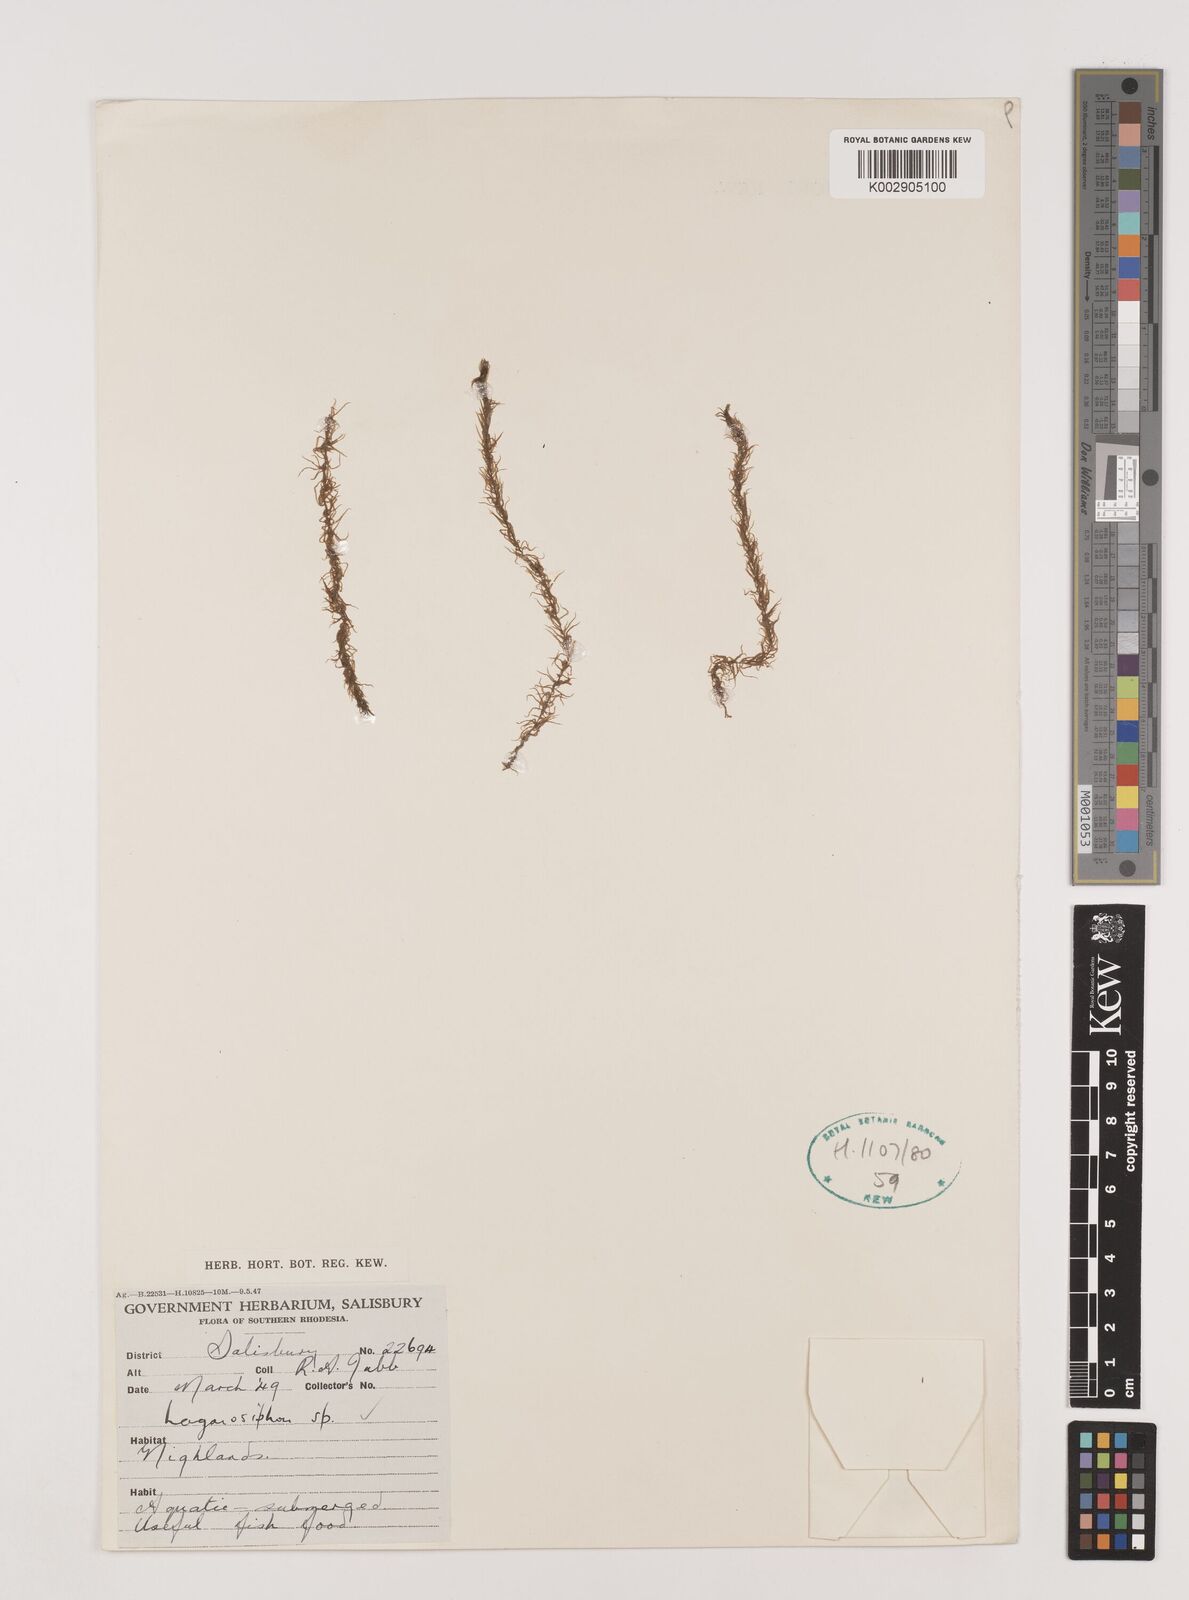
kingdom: Plantae
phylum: Tracheophyta
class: Liliopsida
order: Alismatales
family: Hydrocharitaceae
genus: Lagarosiphon
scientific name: Lagarosiphon
